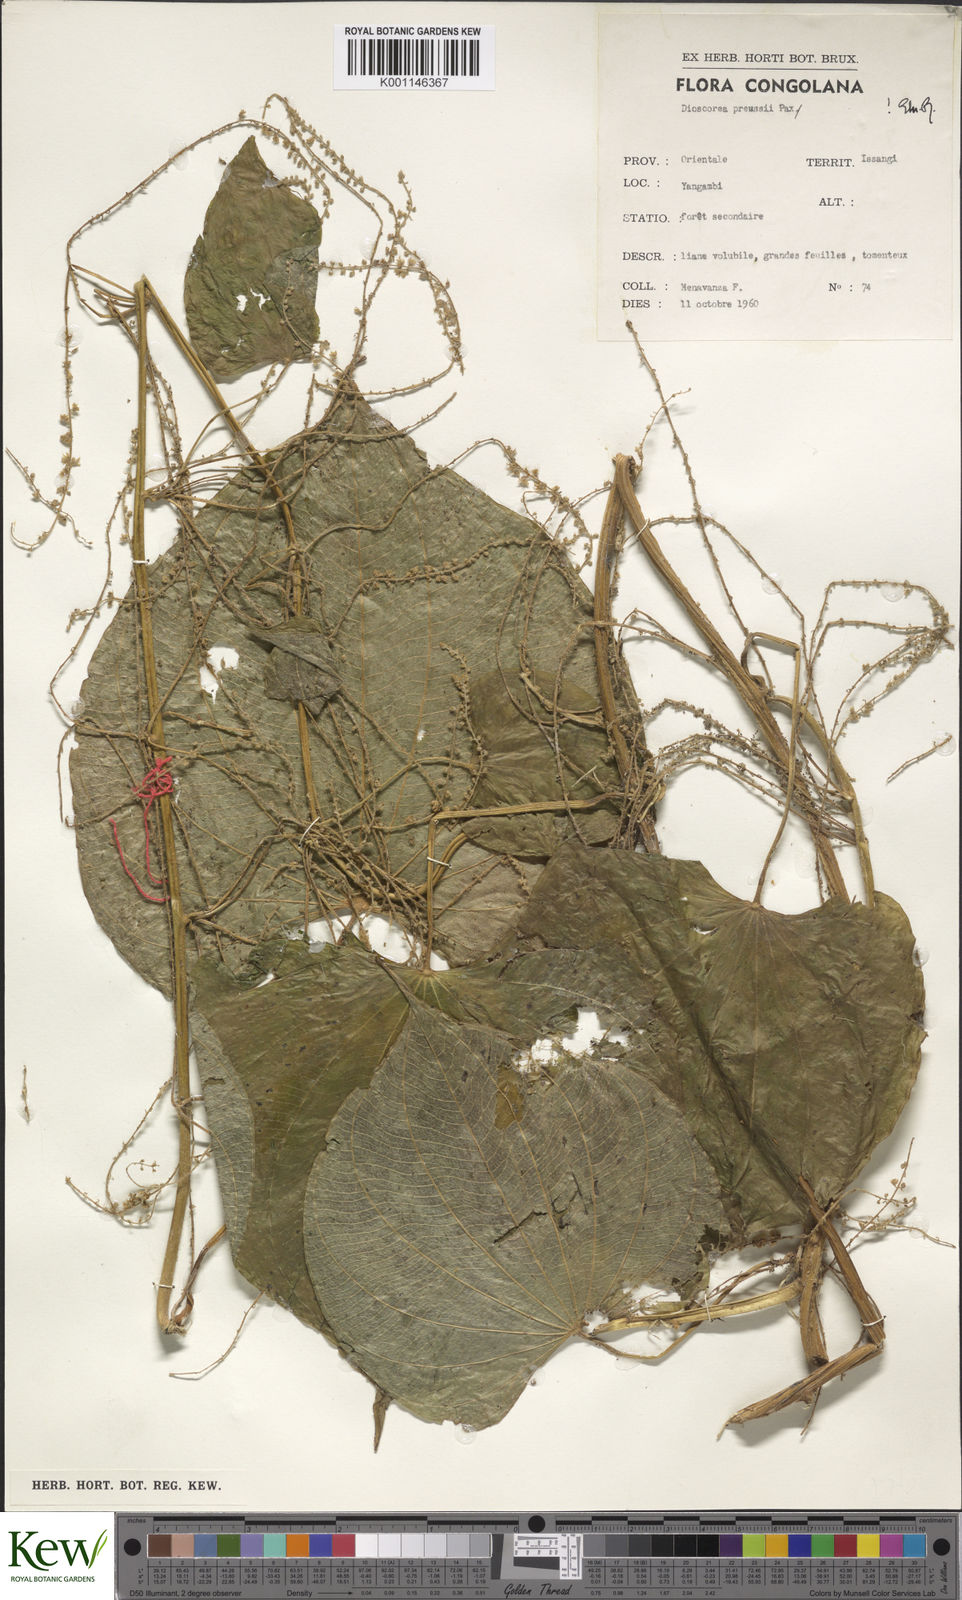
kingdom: Plantae
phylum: Tracheophyta
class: Liliopsida
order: Dioscoreales
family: Dioscoreaceae
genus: Dioscorea
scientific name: Dioscorea preussii
